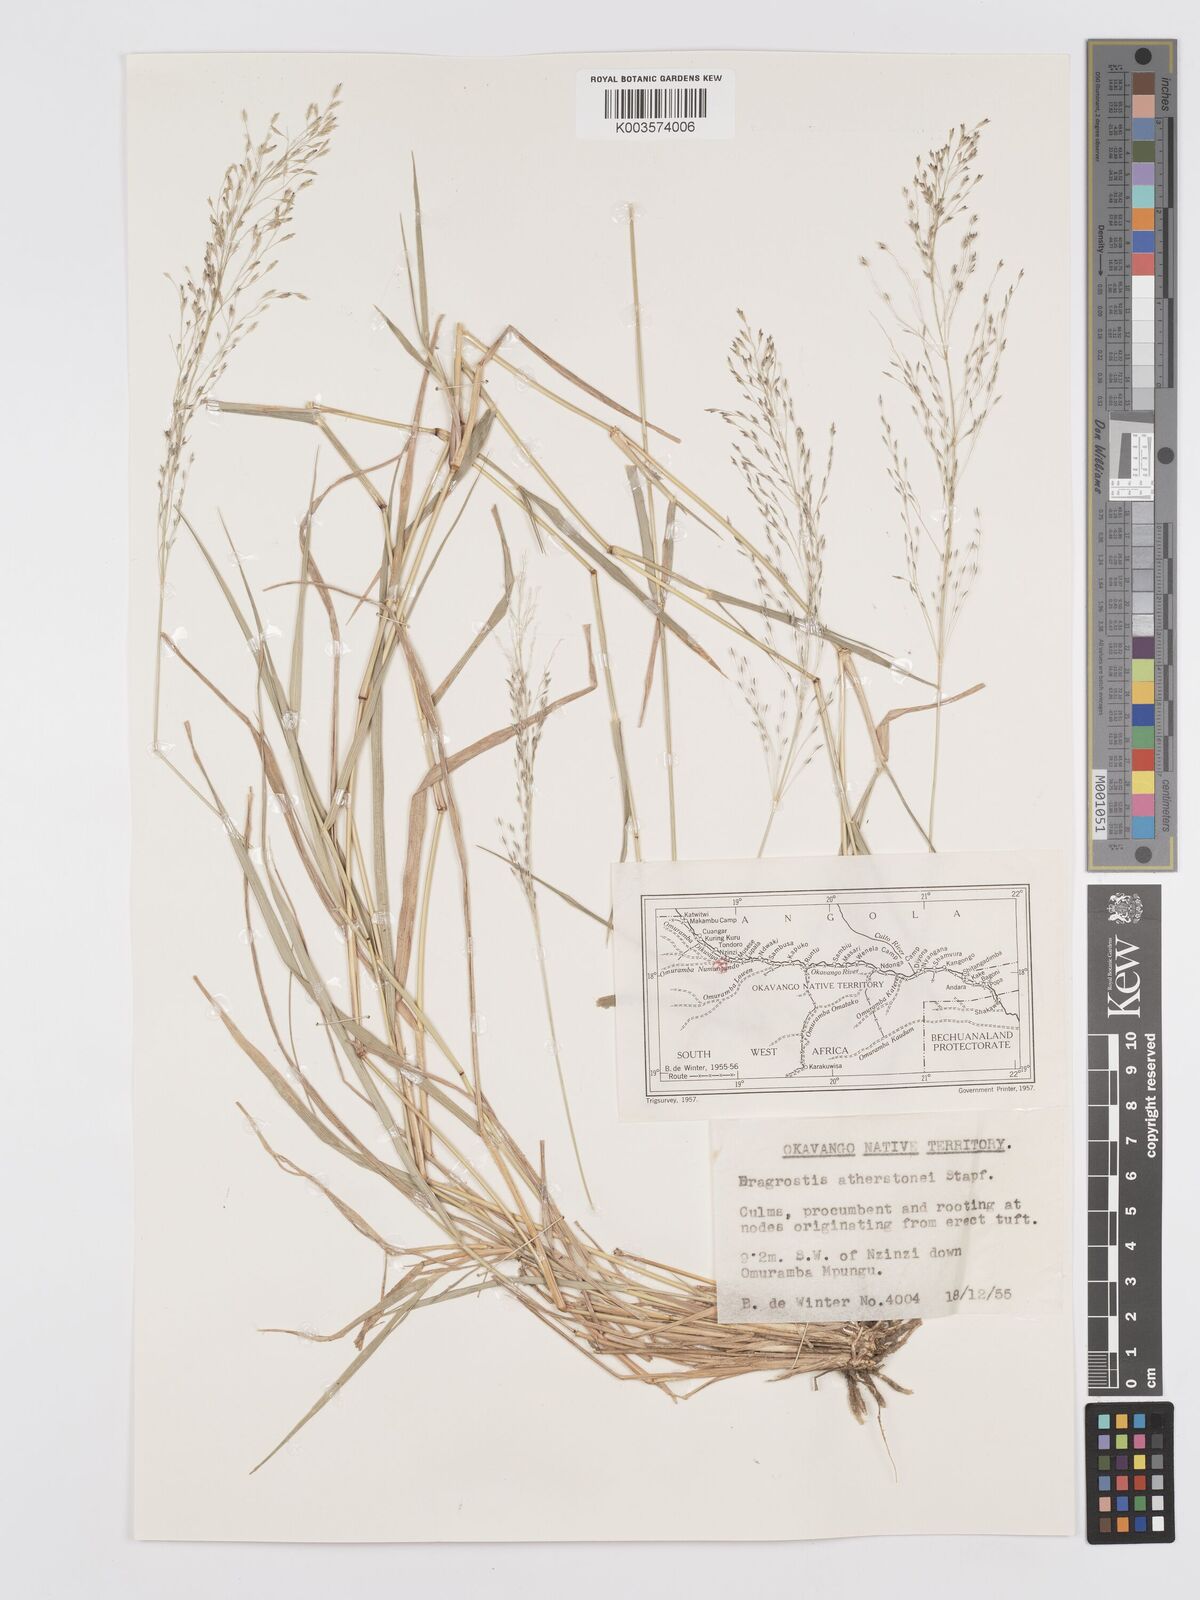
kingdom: Plantae
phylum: Tracheophyta
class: Liliopsida
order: Poales
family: Poaceae
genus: Eragrostis
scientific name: Eragrostis cylindriflora
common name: Cylinderflower lovegrass
